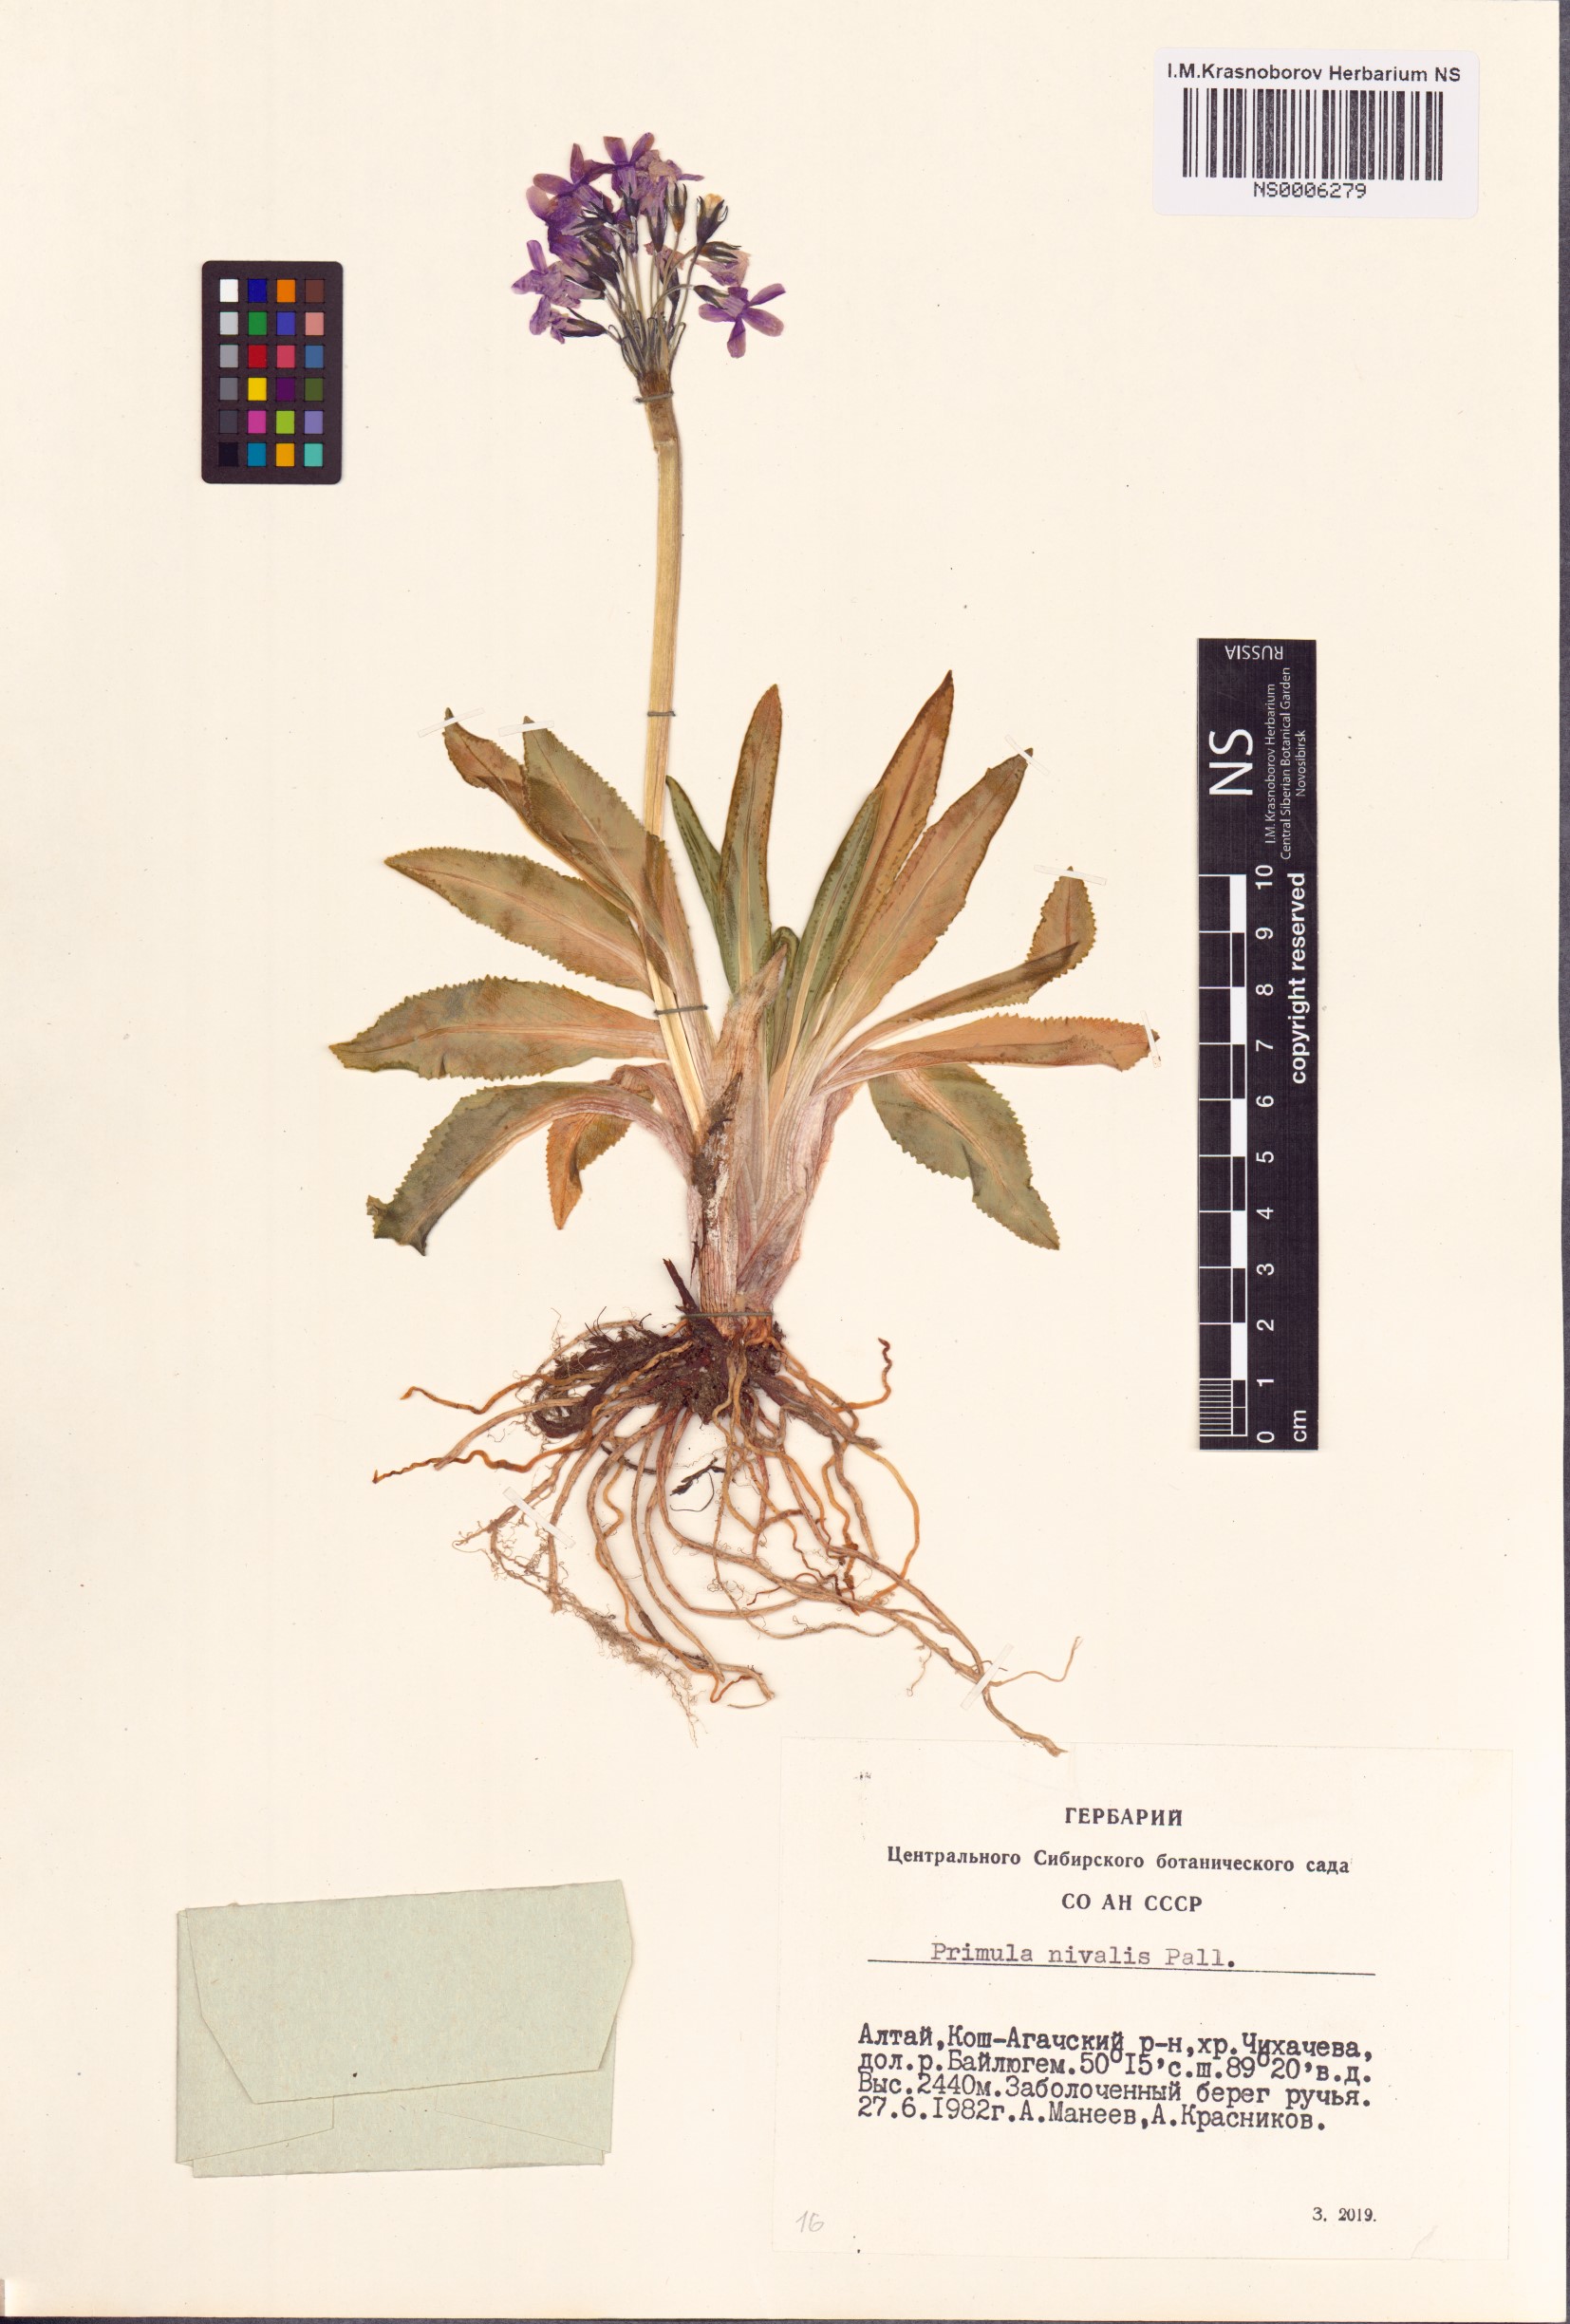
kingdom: Plantae
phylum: Tracheophyta
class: Magnoliopsida
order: Ericales
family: Primulaceae
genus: Primula
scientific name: Primula nivalis
